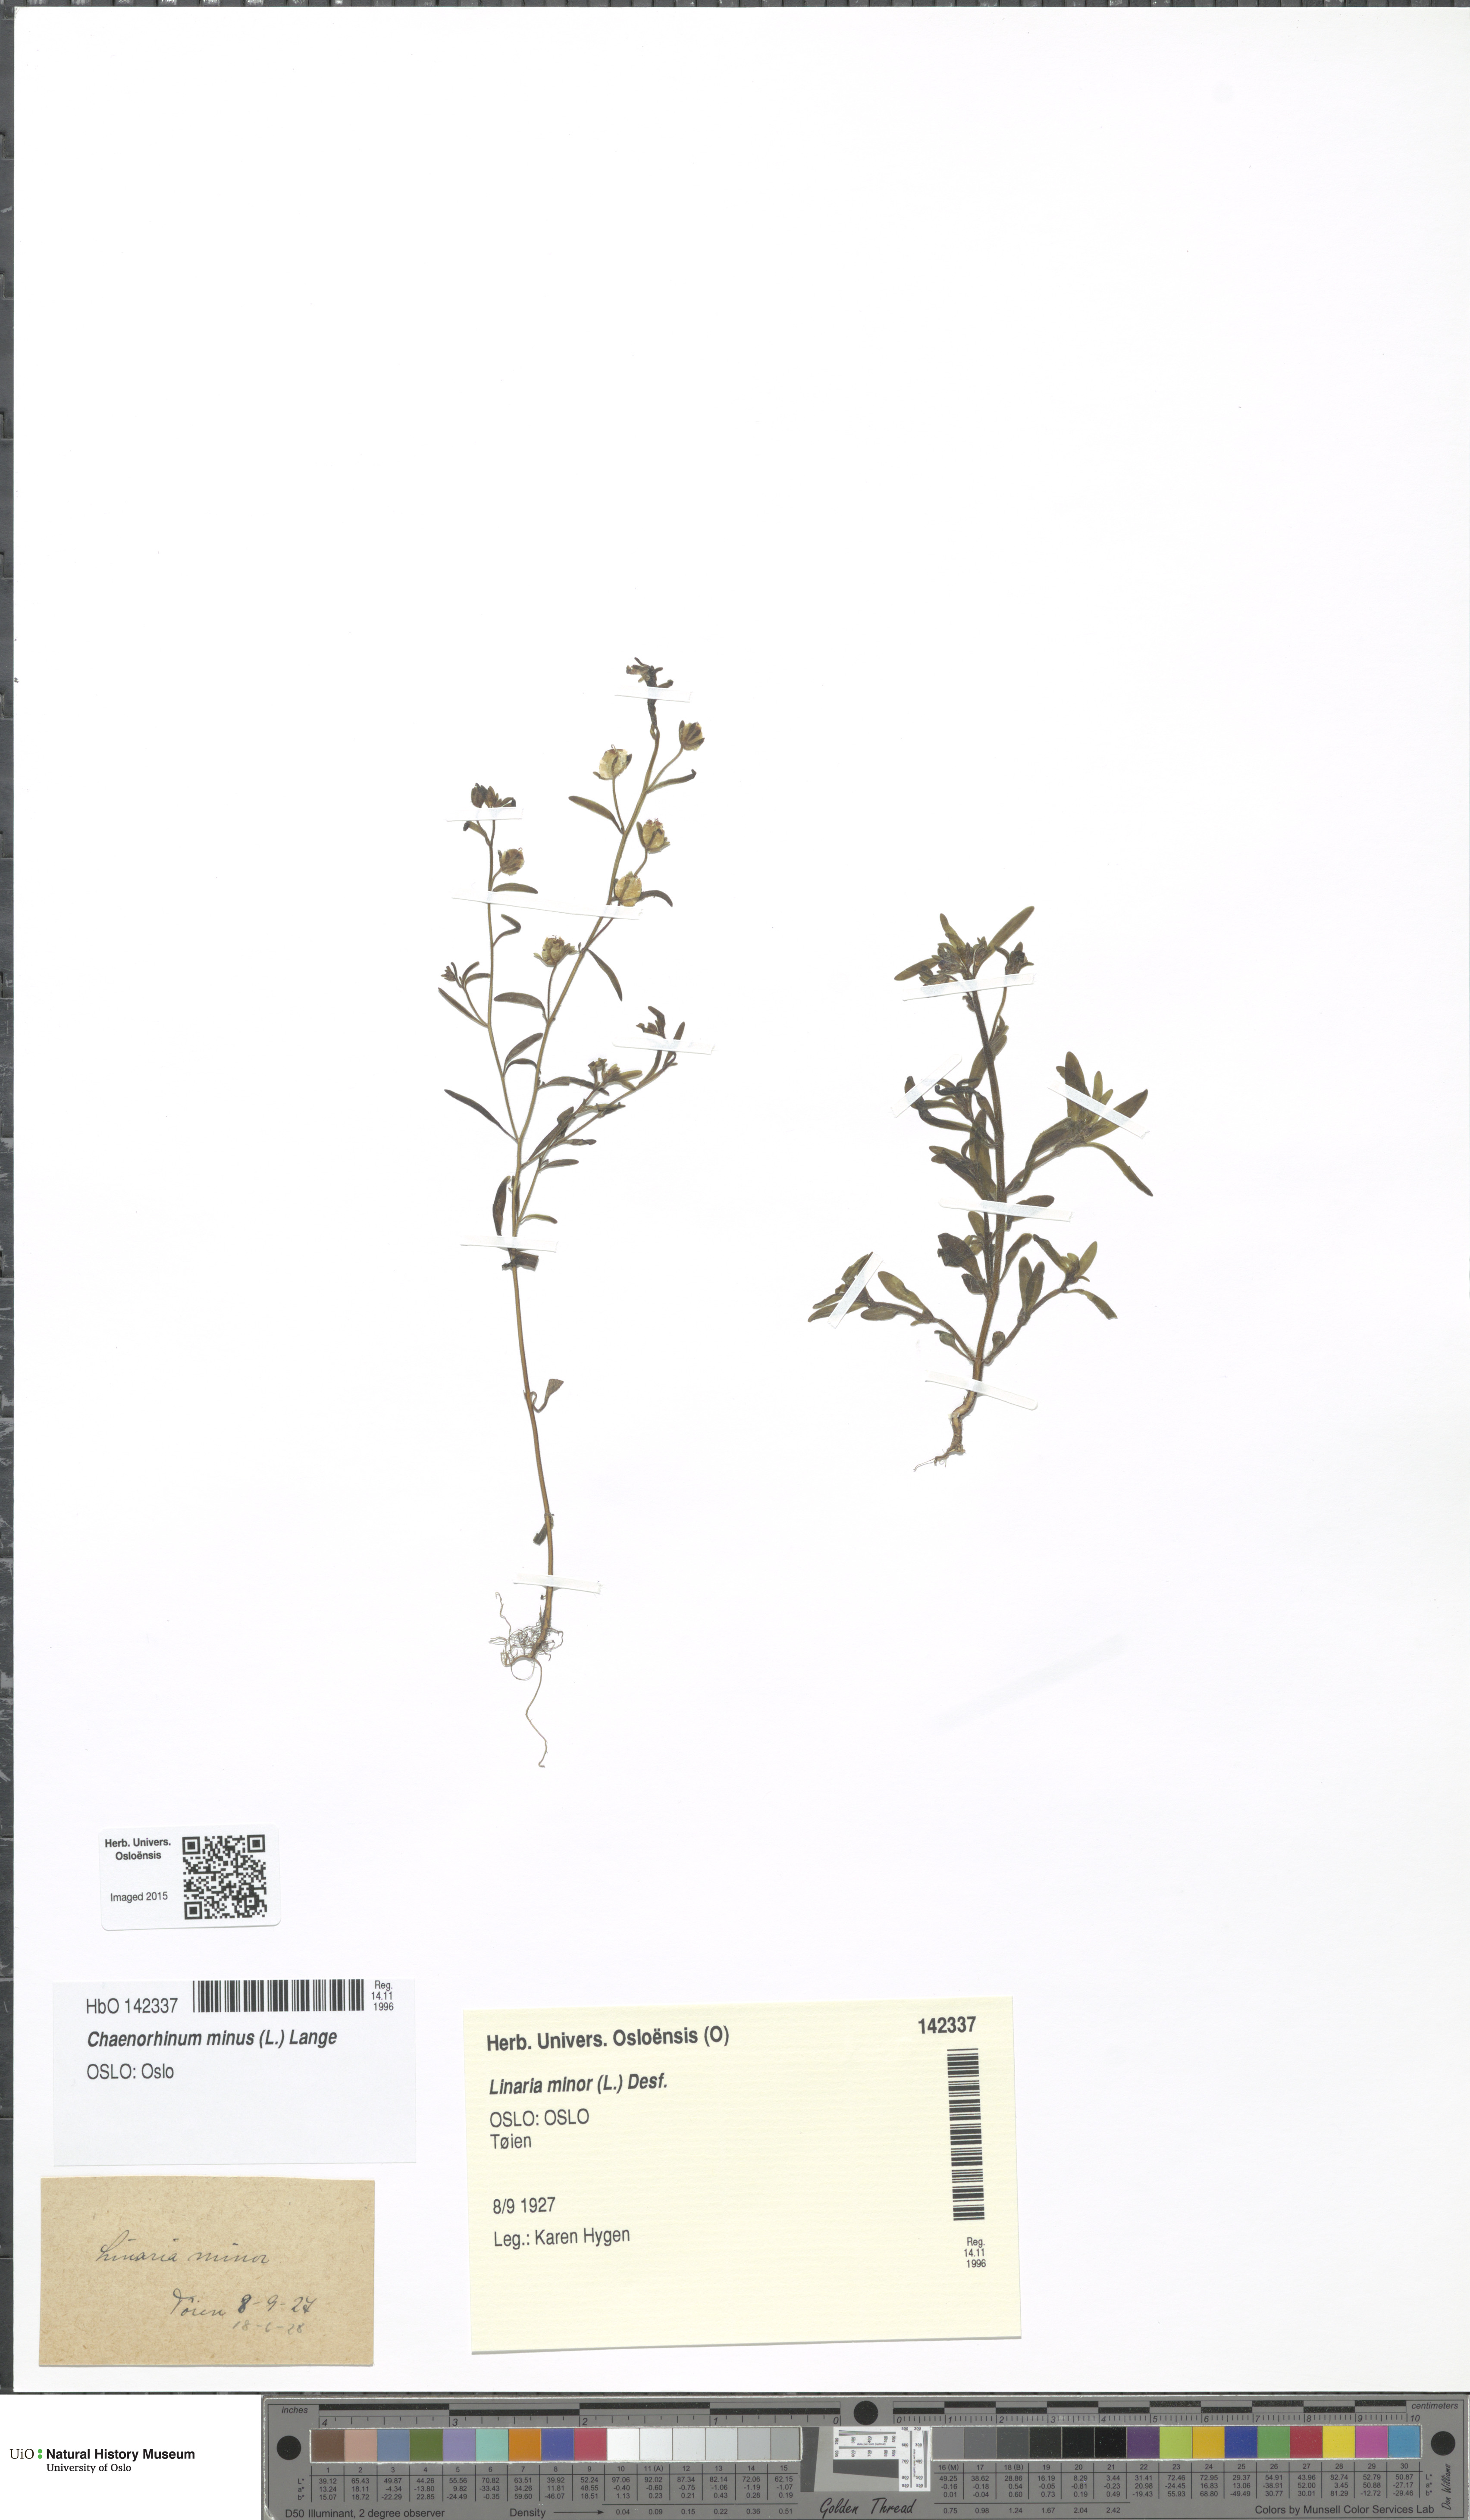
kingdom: Plantae
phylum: Tracheophyta
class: Magnoliopsida
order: Lamiales
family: Plantaginaceae
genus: Chaenorhinum
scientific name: Chaenorhinum minus
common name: Dwarf snapdragon
